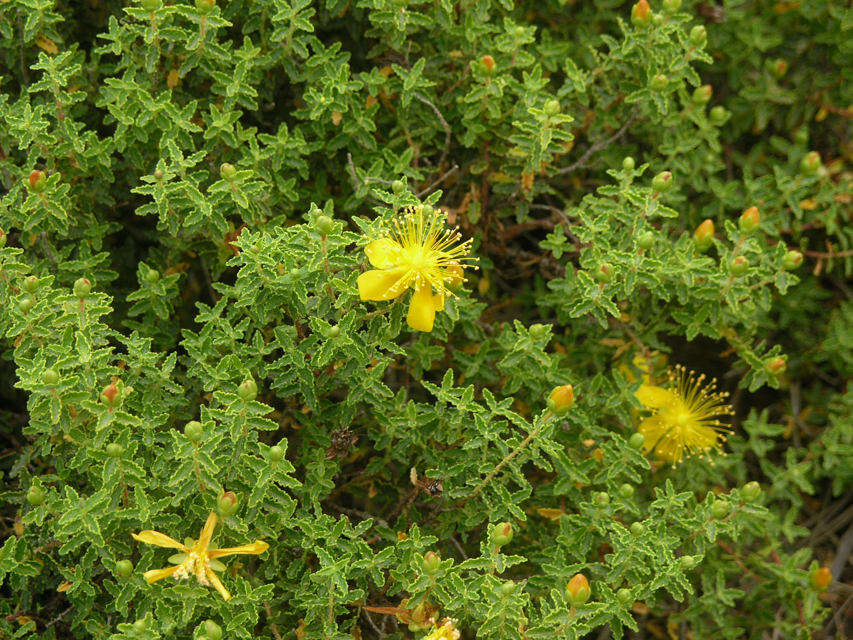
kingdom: Plantae
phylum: Tracheophyta
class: Magnoliopsida
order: Malpighiales
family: Hypericaceae
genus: Hypericum
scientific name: Hypericum balearicum
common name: Majorca st john's wort
